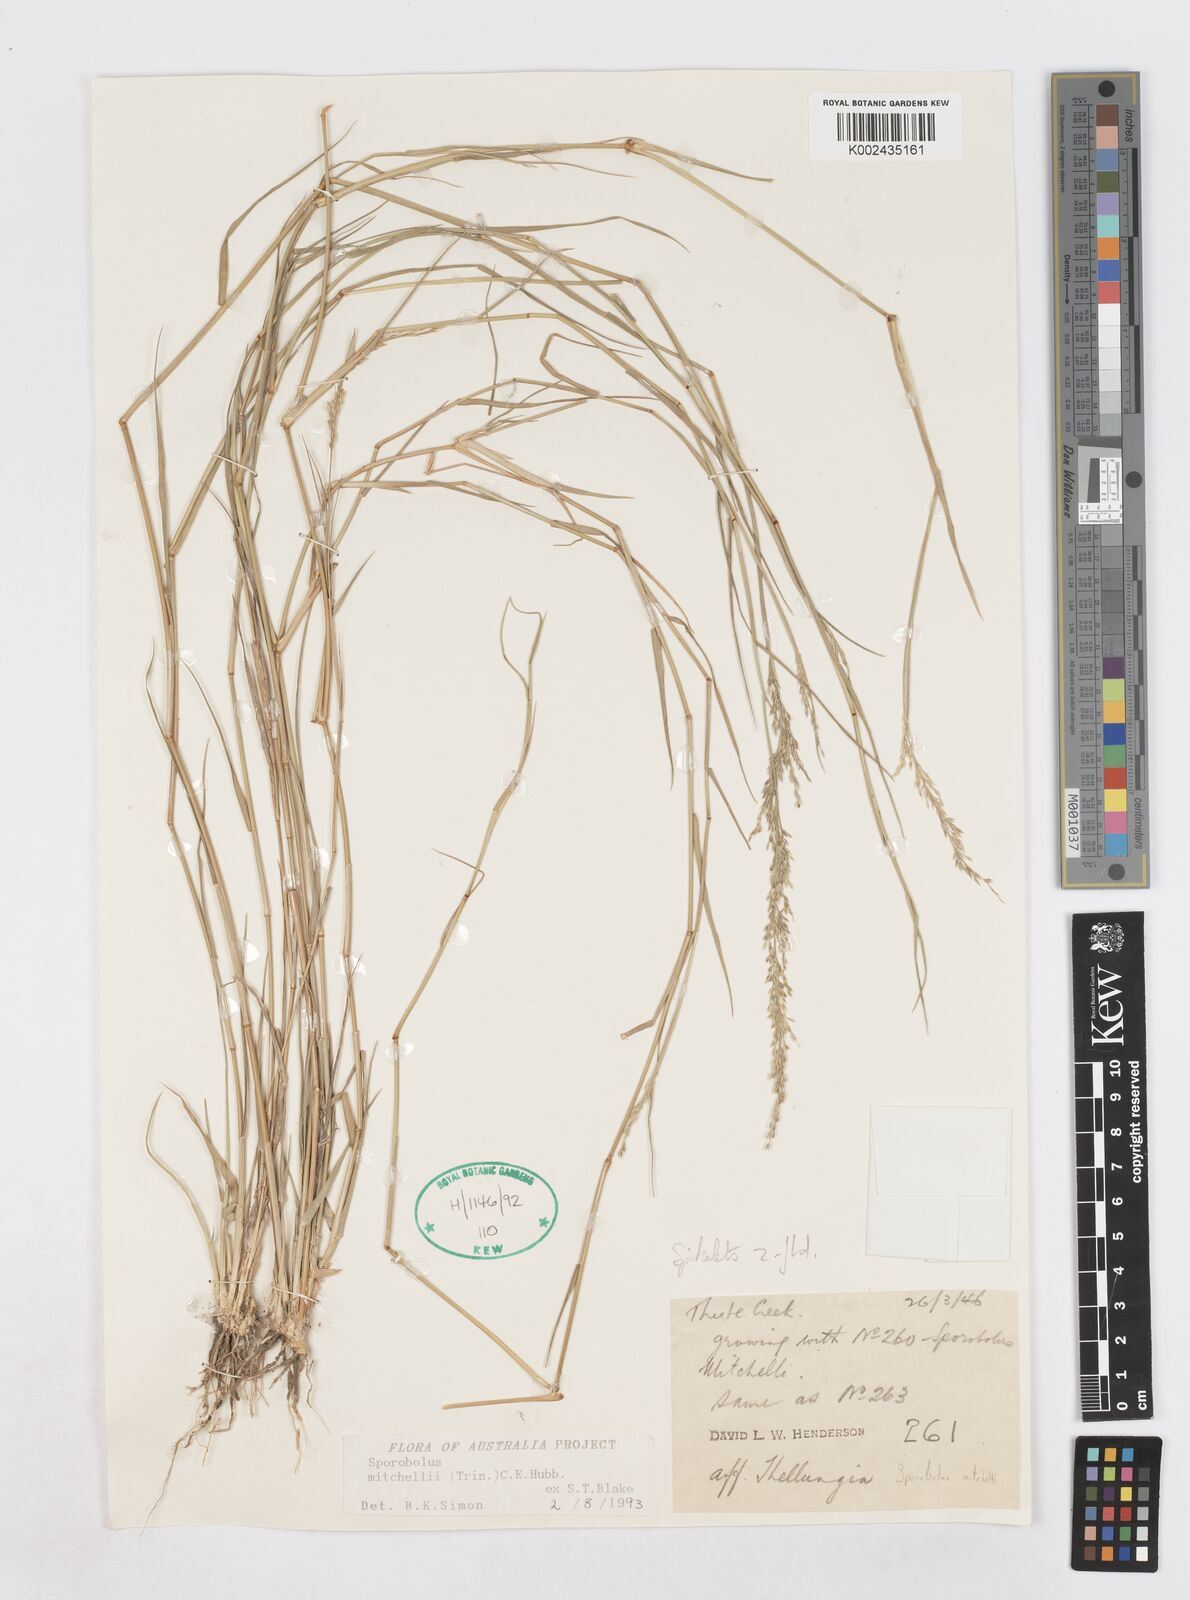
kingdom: Plantae
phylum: Tracheophyta
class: Liliopsida
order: Poales
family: Poaceae
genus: Sporobolus
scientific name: Sporobolus mitchellii
